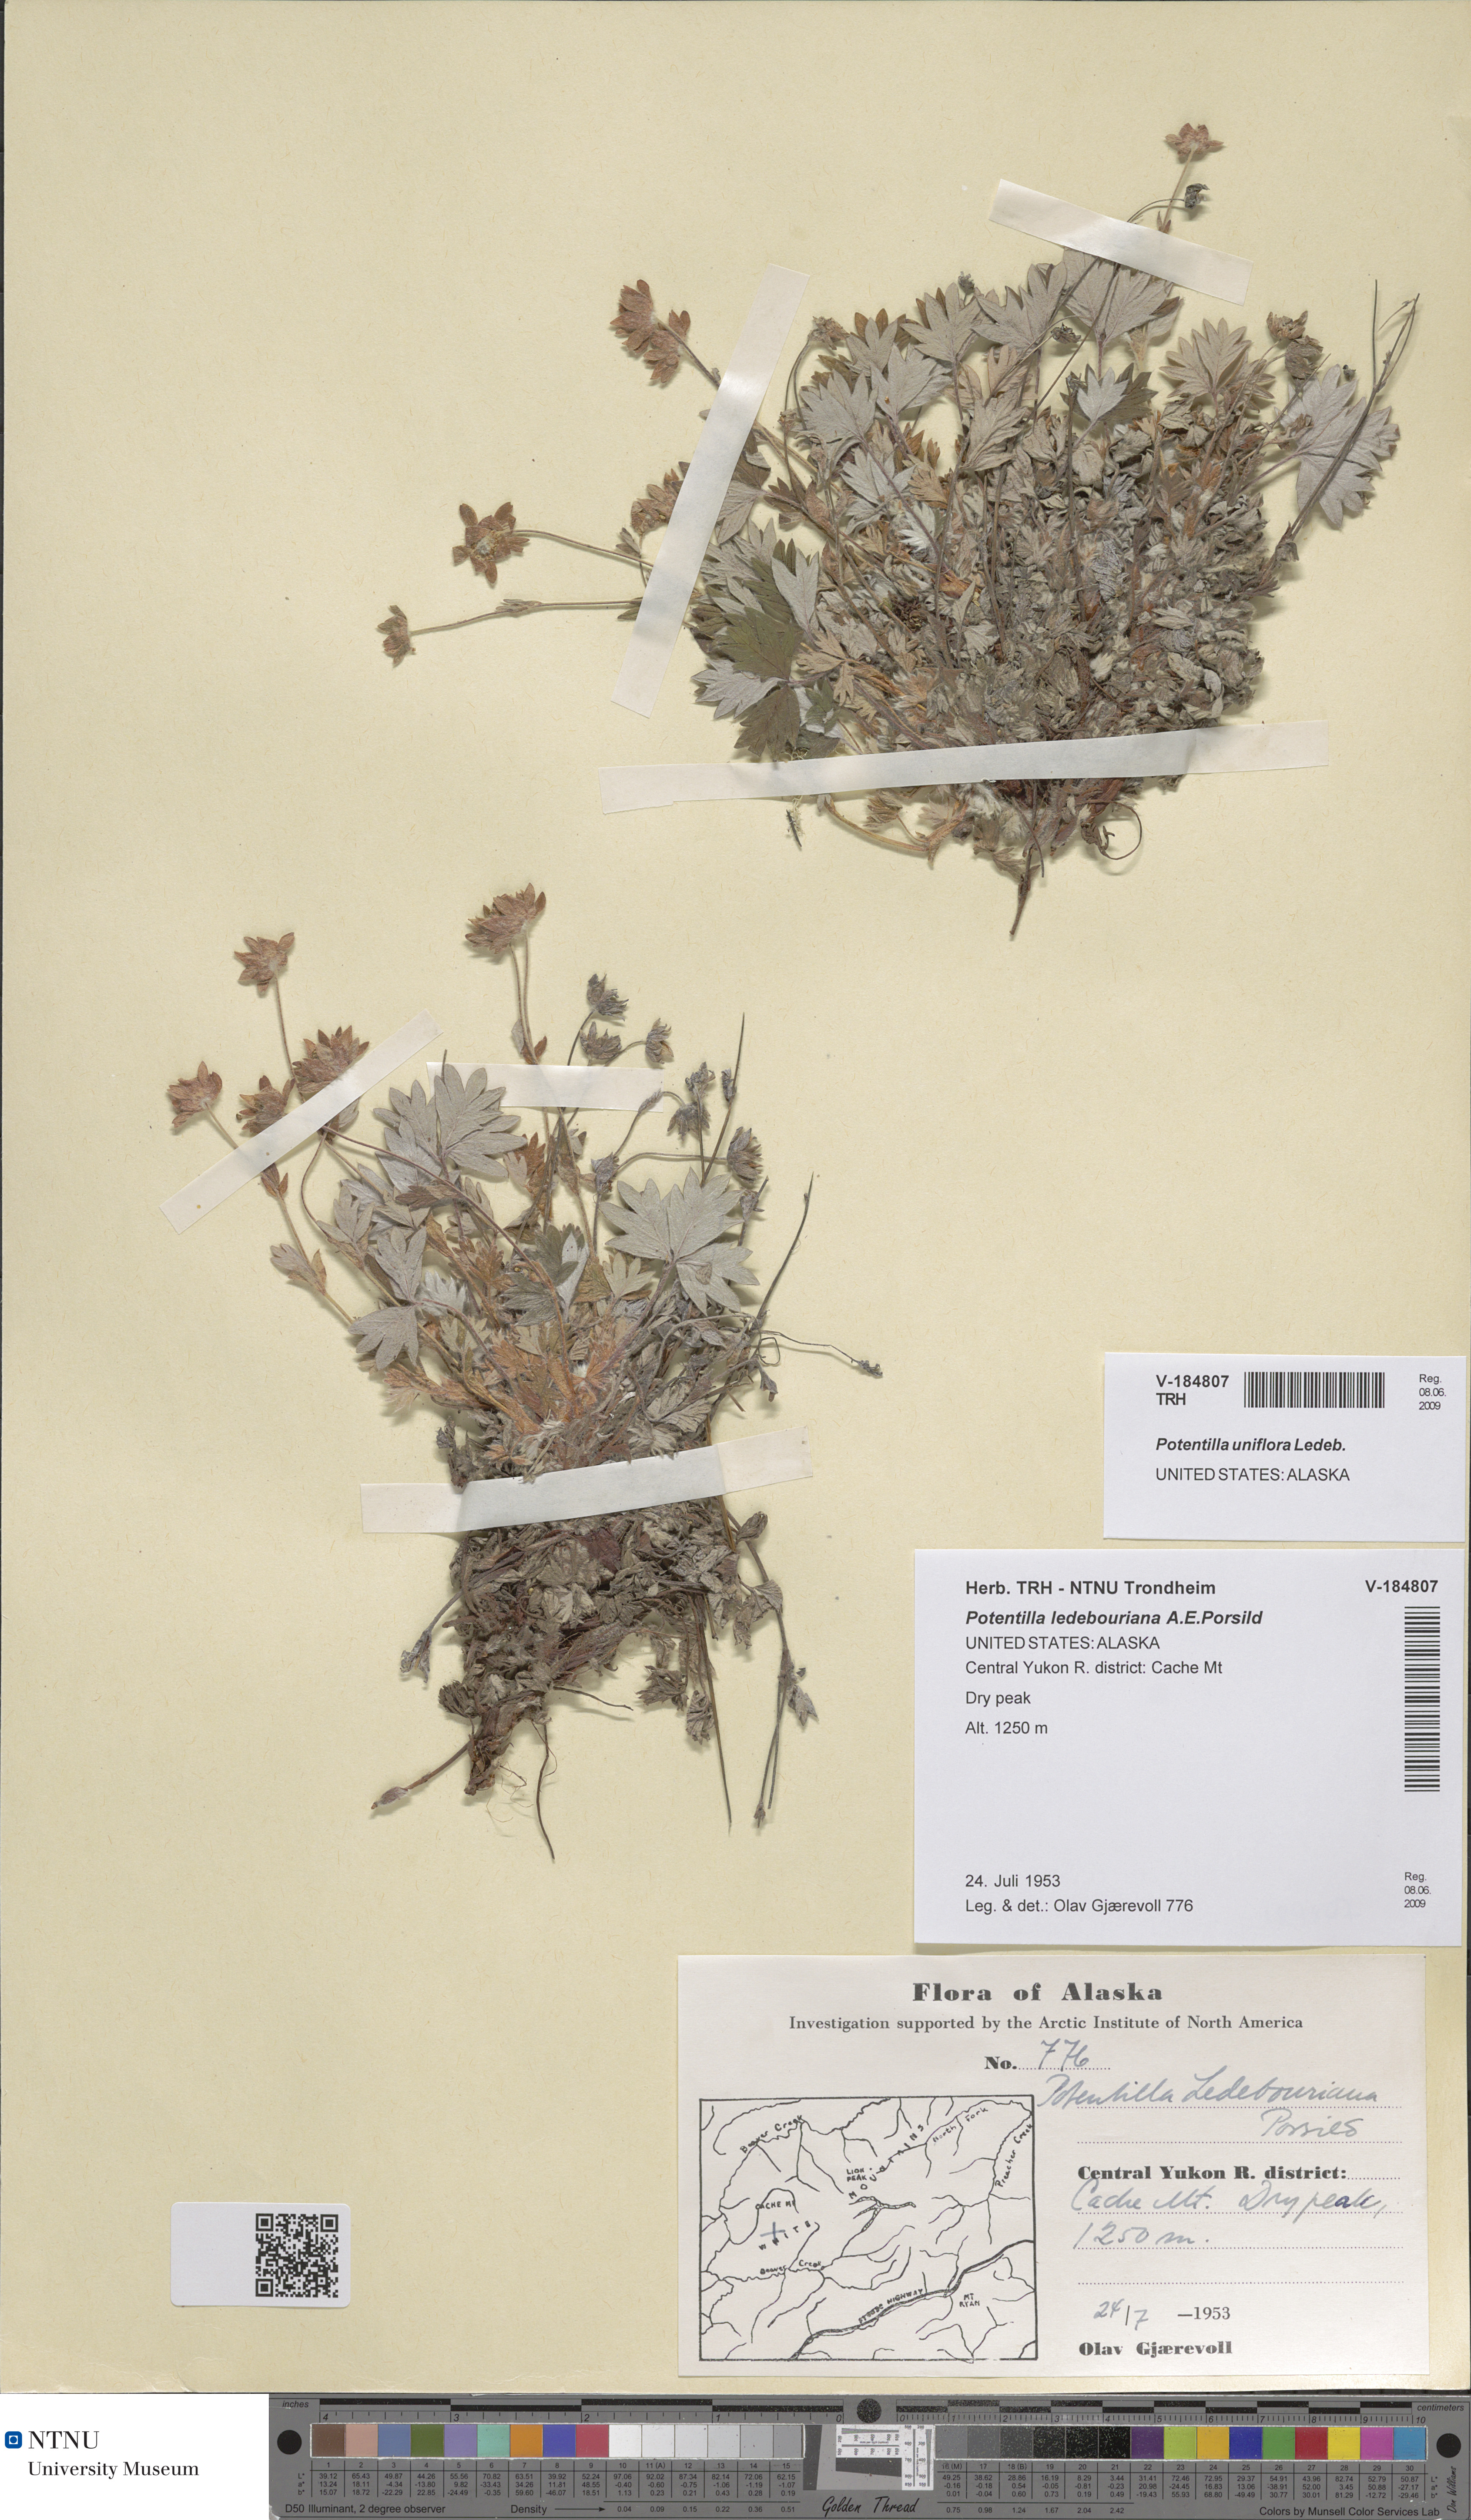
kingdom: Plantae
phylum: Tracheophyta
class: Magnoliopsida
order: Rosales
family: Rosaceae
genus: Potentilla
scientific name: Potentilla uniflora
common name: One-flowered cinquefoil
